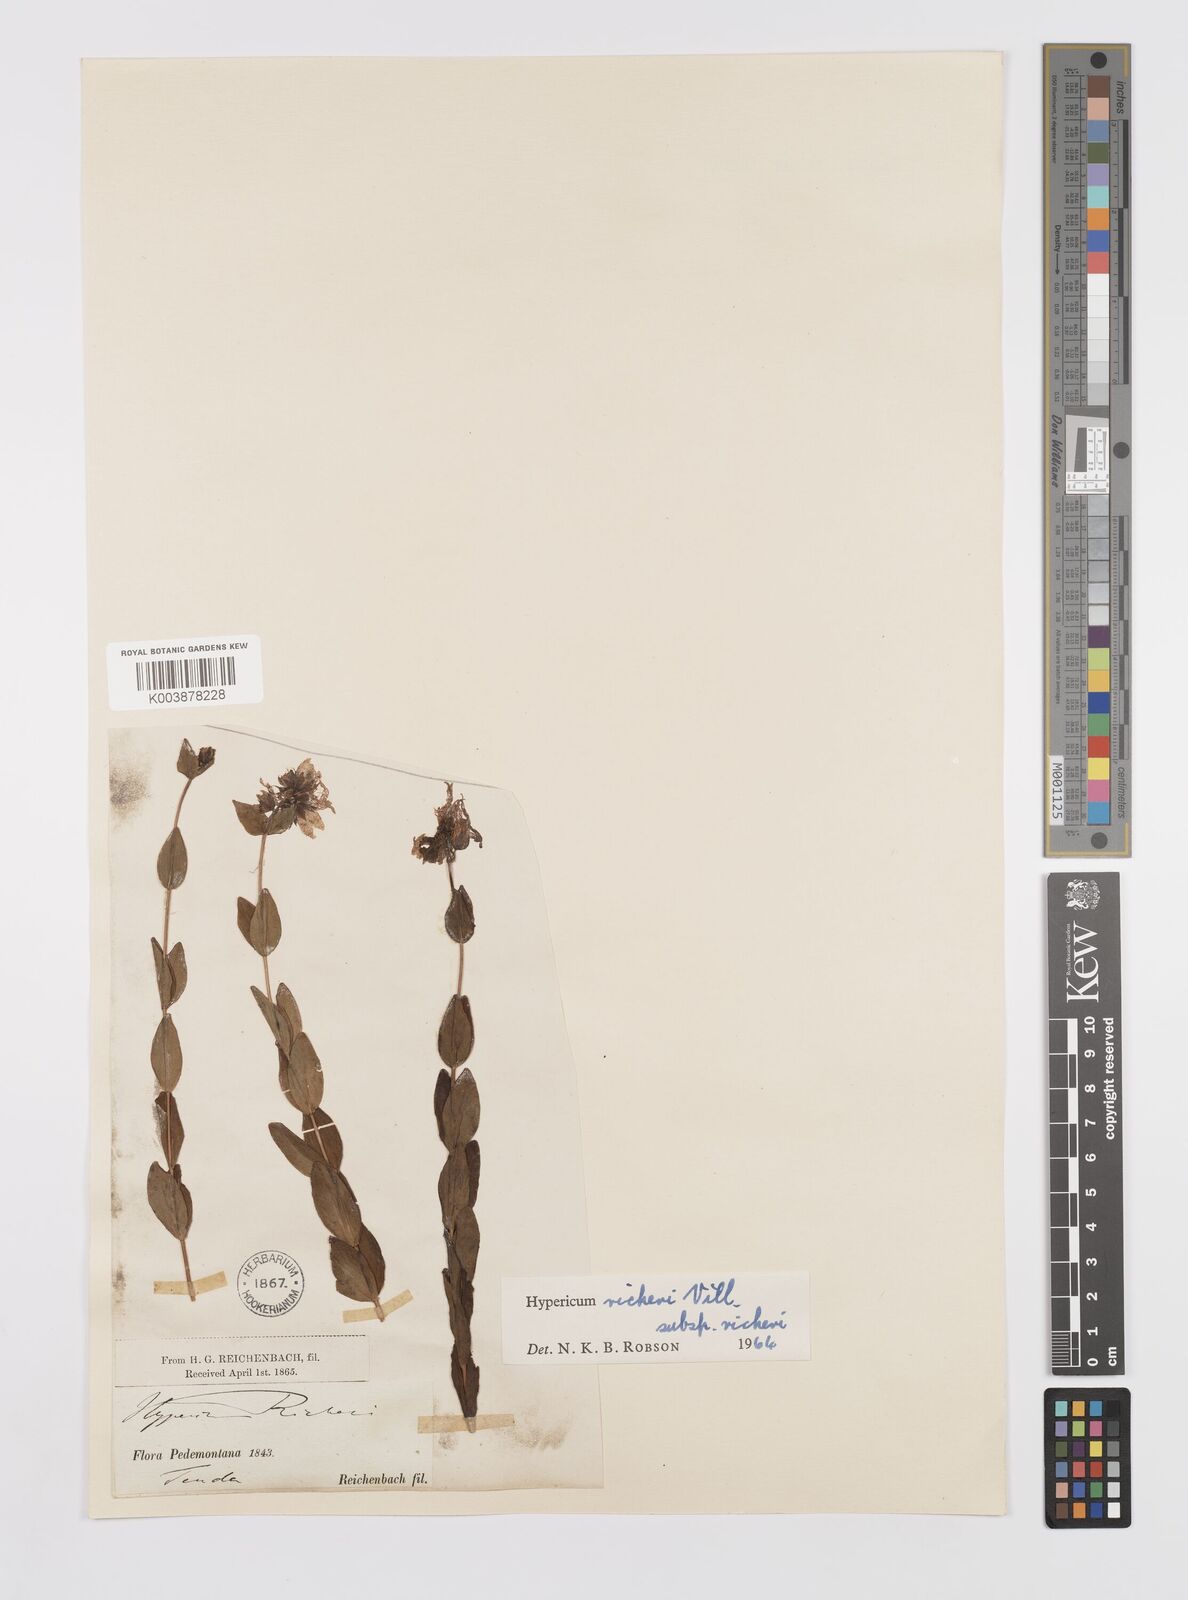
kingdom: Plantae
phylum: Tracheophyta
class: Magnoliopsida
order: Malpighiales
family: Hypericaceae
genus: Hypericum
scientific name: Hypericum richeri
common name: Alpine st john's-wort
